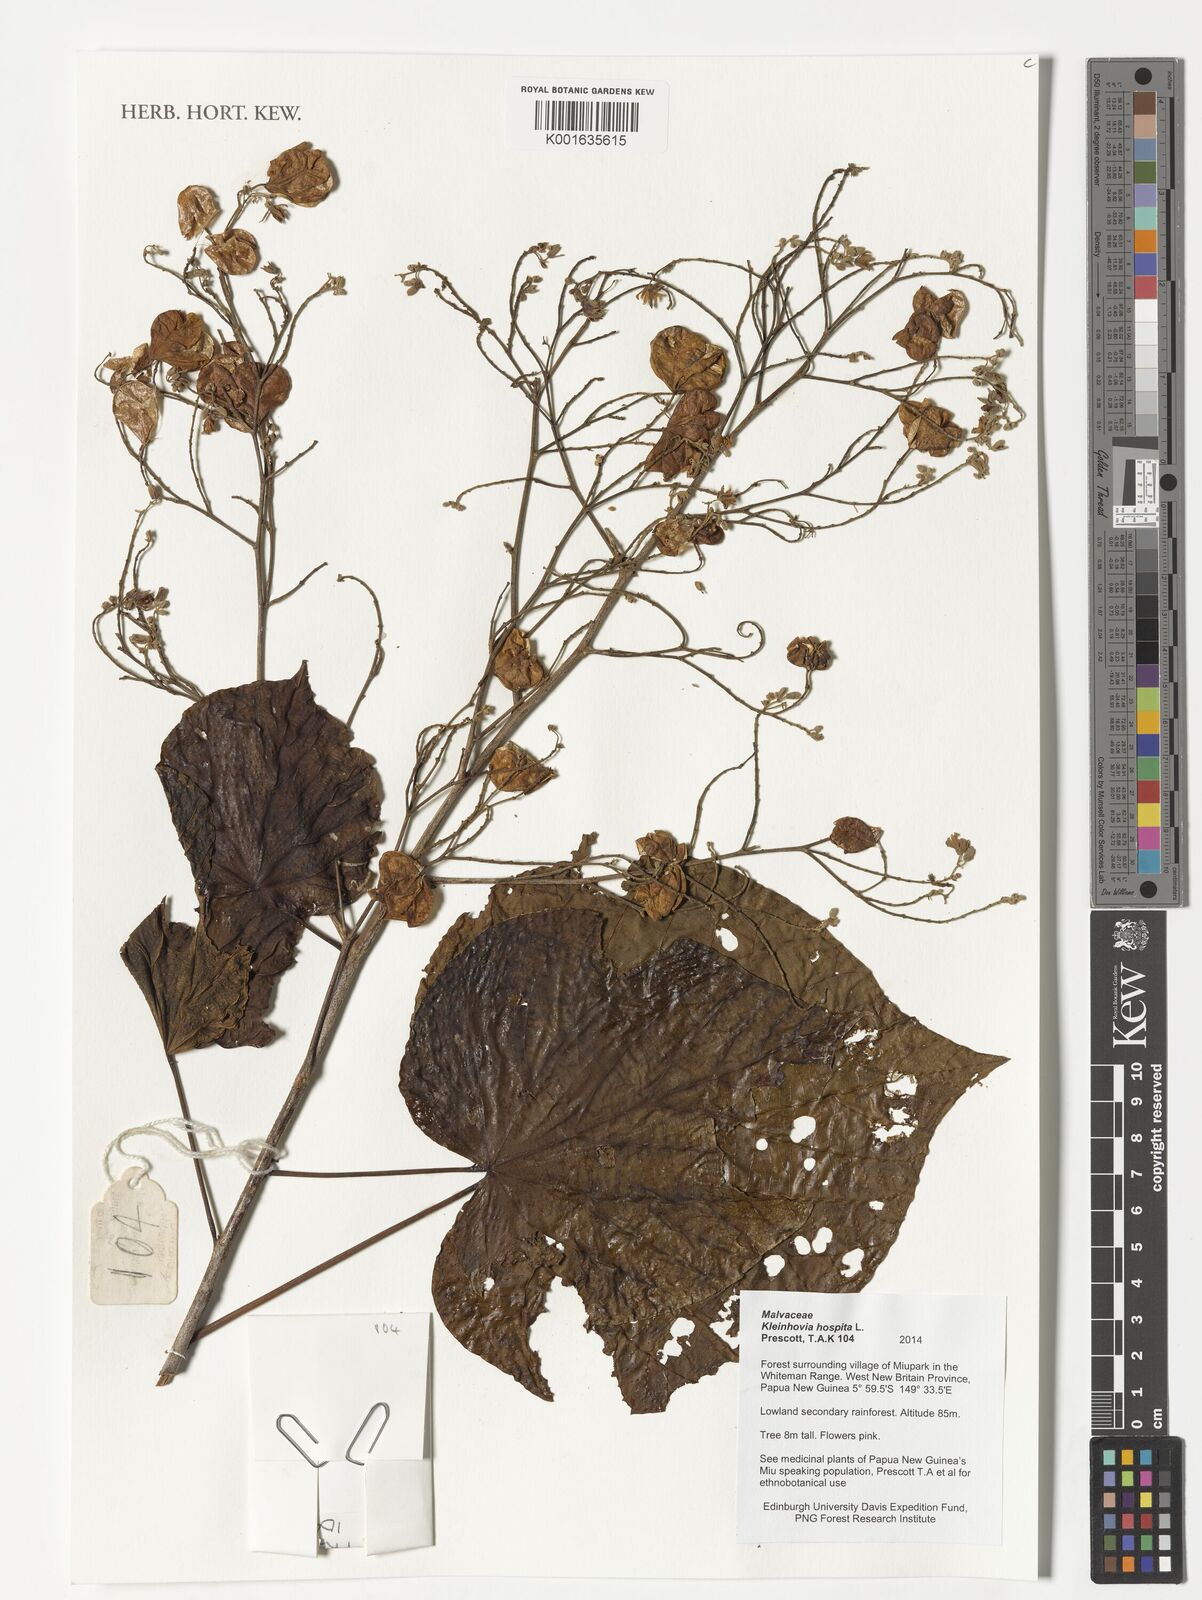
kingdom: Plantae
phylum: Tracheophyta
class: Magnoliopsida
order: Malvales
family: Malvaceae
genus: Kleinhovia
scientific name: Kleinhovia hospita
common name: Guest-tree
